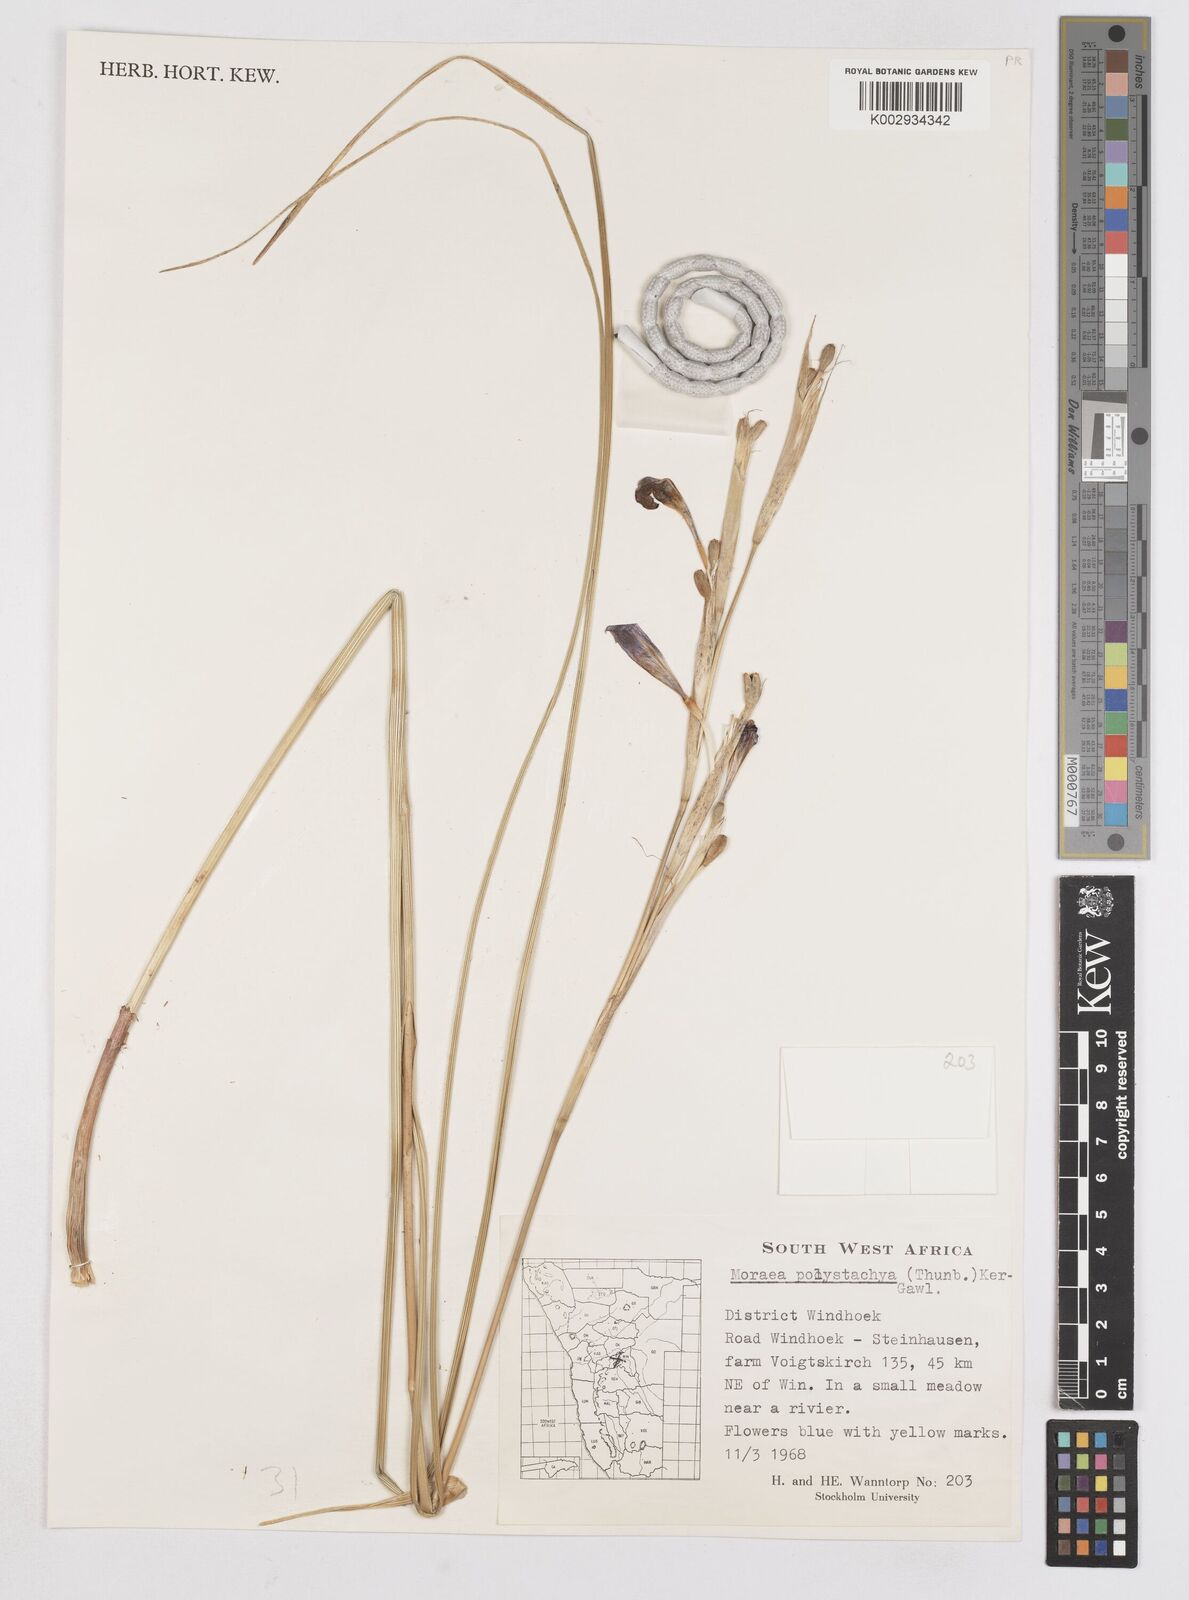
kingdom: Plantae
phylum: Tracheophyta
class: Liliopsida
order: Asparagales
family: Iridaceae
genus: Moraea
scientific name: Moraea polystachya
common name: Blue-tulip
